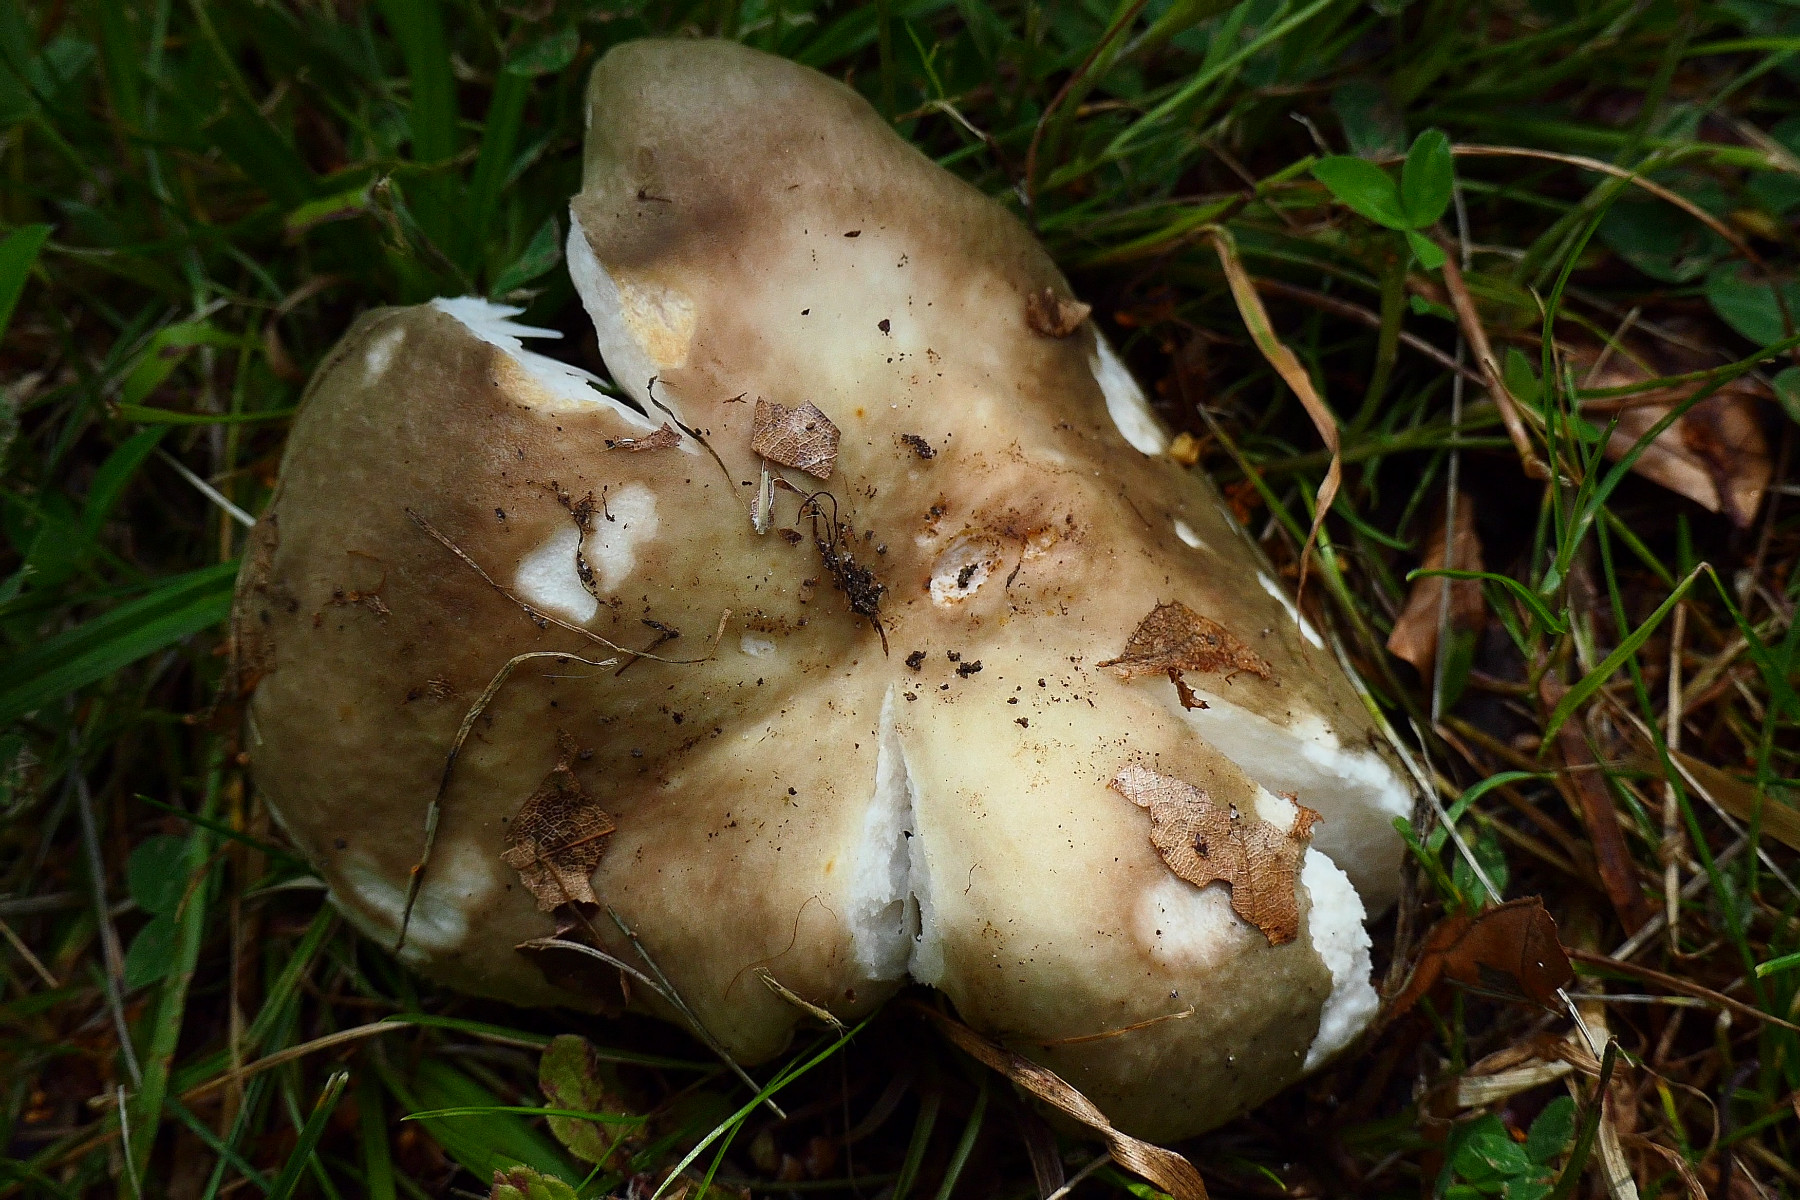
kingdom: Fungi
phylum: Basidiomycota
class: Agaricomycetes
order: Russulales
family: Russulaceae
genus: Russula
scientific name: Russula heterophylla
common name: gaffelbladet skørhat
